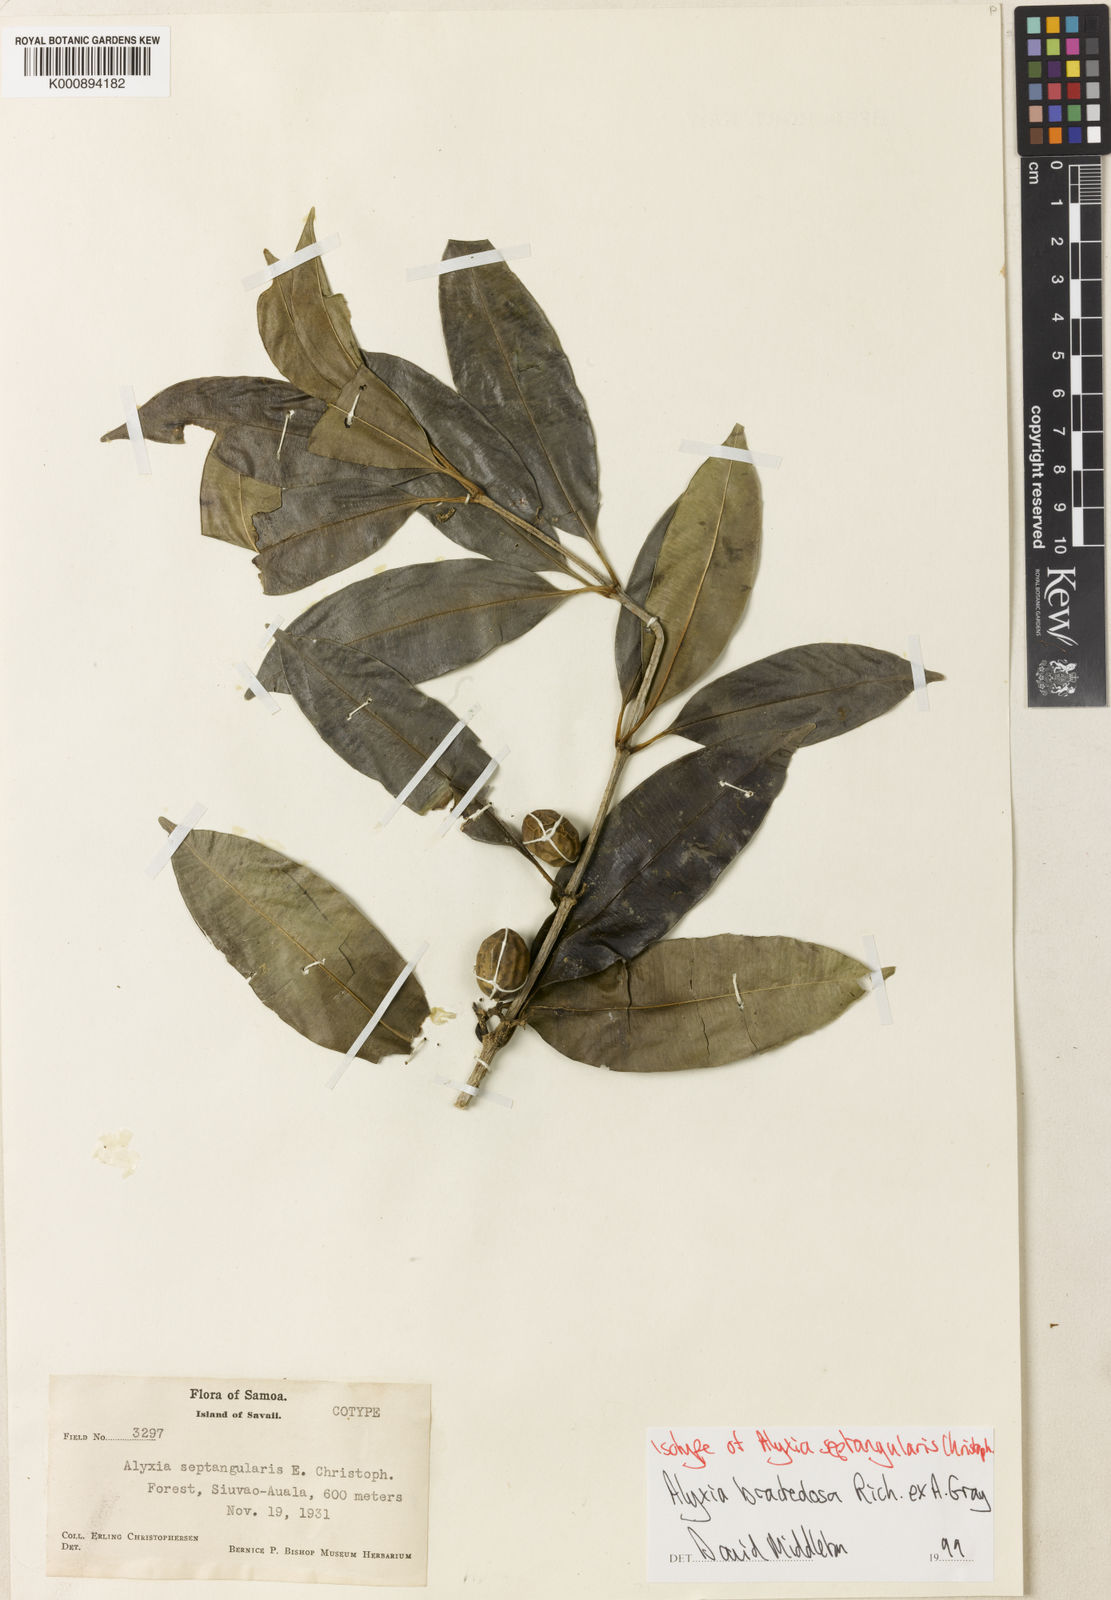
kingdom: Plantae
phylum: Tracheophyta
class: Magnoliopsida
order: Gentianales
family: Apocynaceae
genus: Alyxia
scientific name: Alyxia bracteolosa
